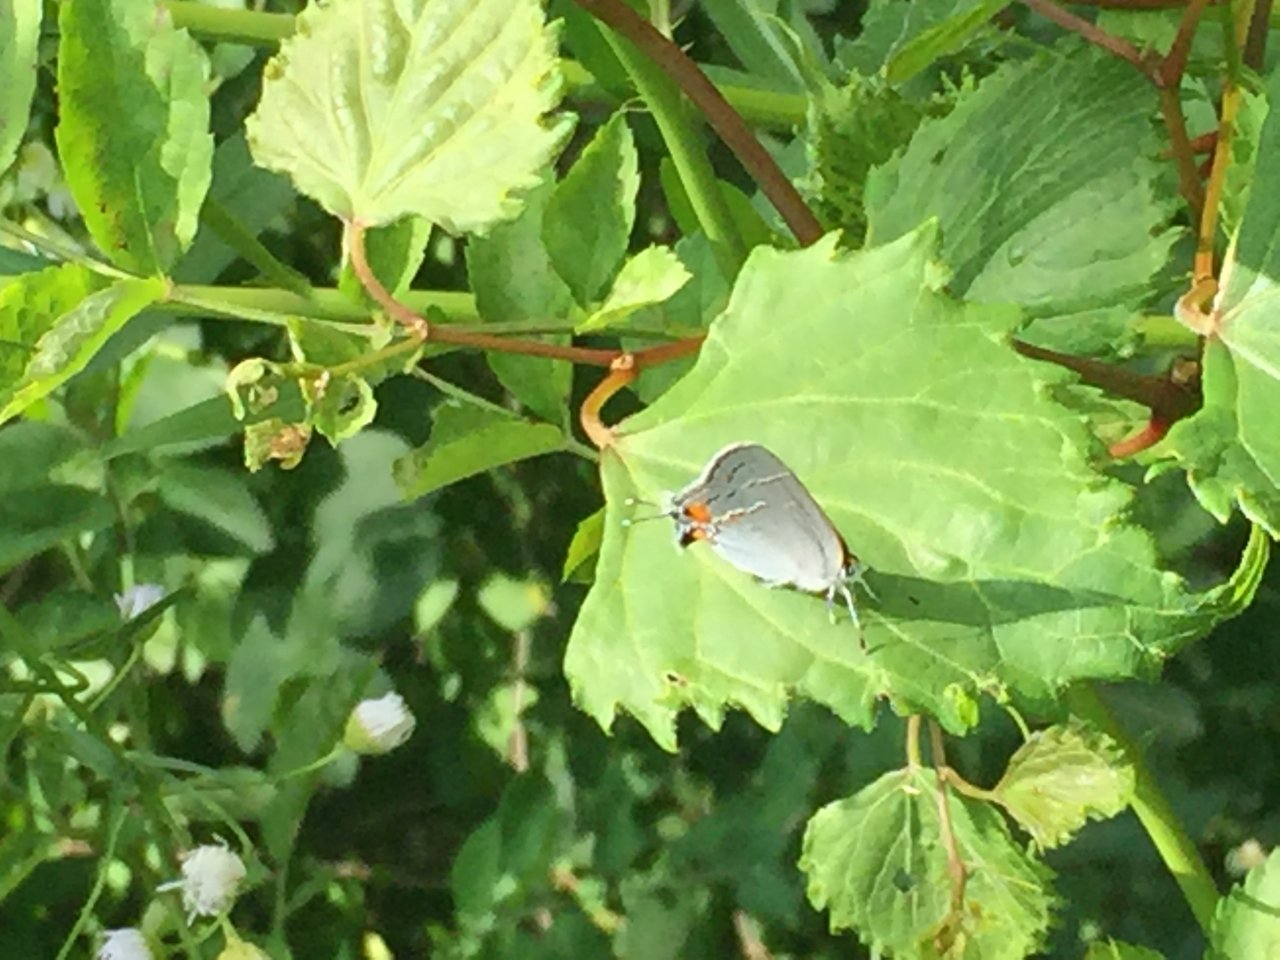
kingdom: Animalia
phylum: Arthropoda
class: Insecta
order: Lepidoptera
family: Lycaenidae
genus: Strymon
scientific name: Strymon melinus
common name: Gray Hairstreak
